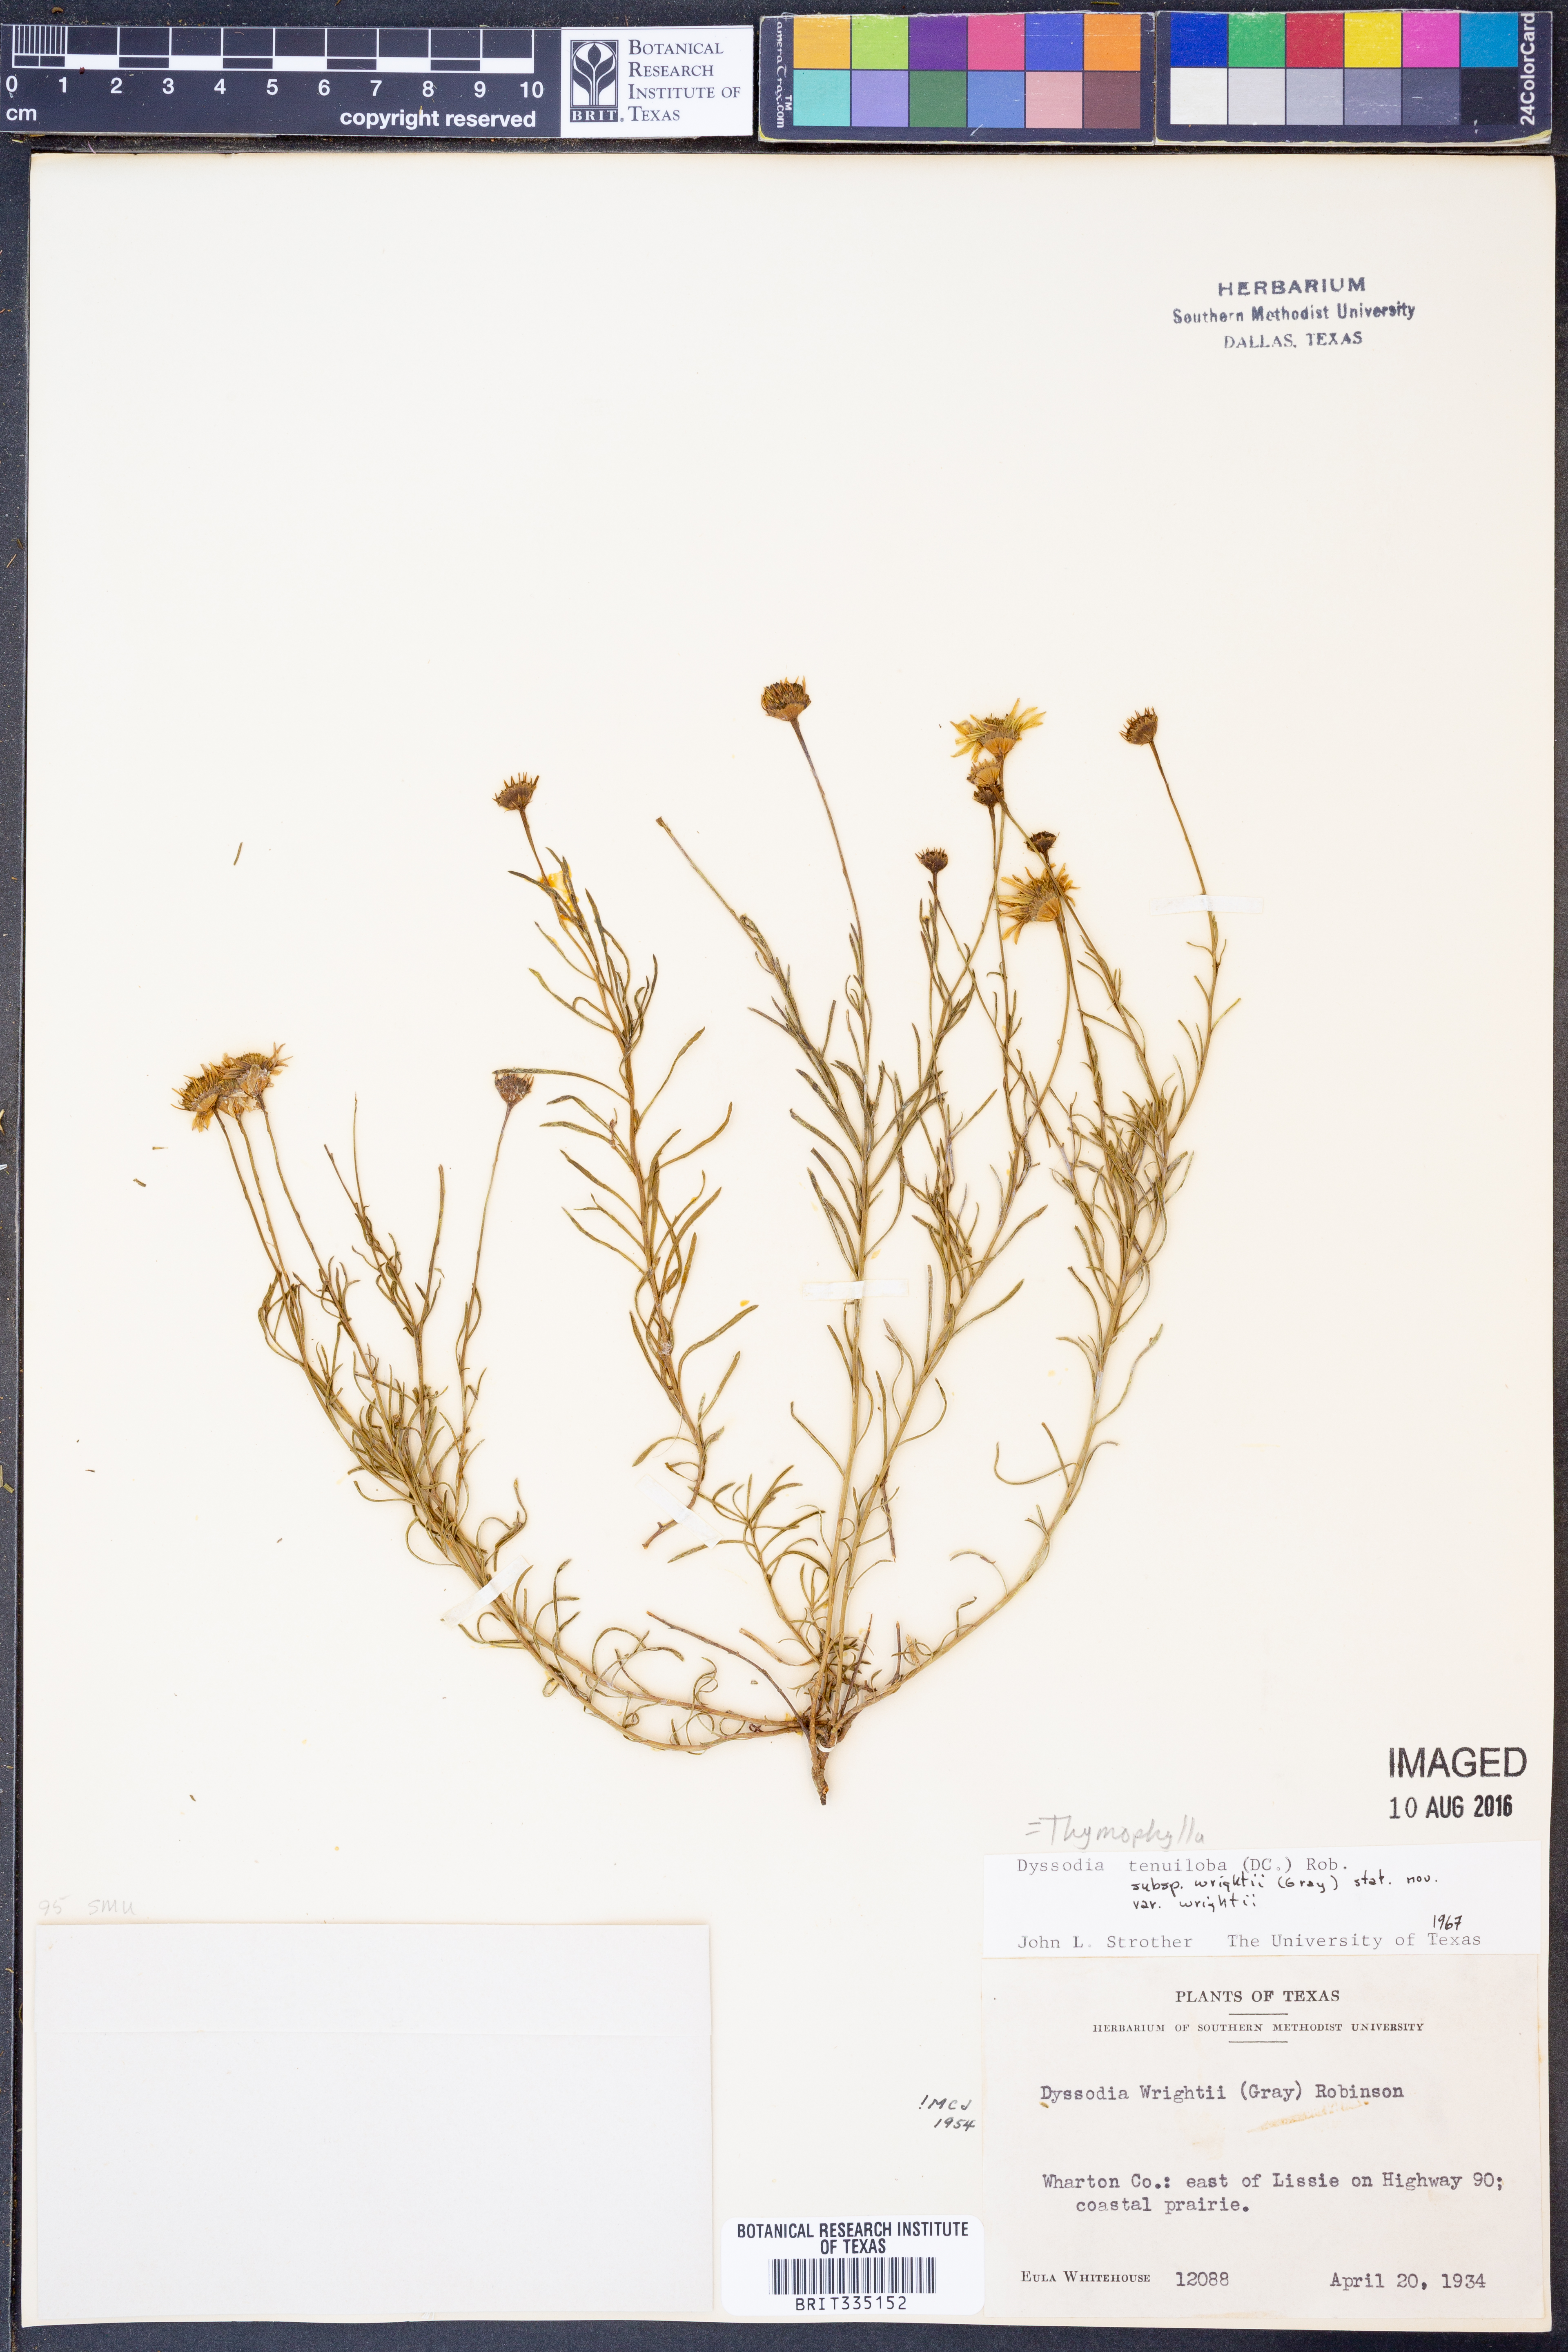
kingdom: Plantae
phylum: Tracheophyta
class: Magnoliopsida
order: Asterales
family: Asteraceae
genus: Thymophylla
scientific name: Thymophylla tenuiloba
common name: Dahlberg's daisy
